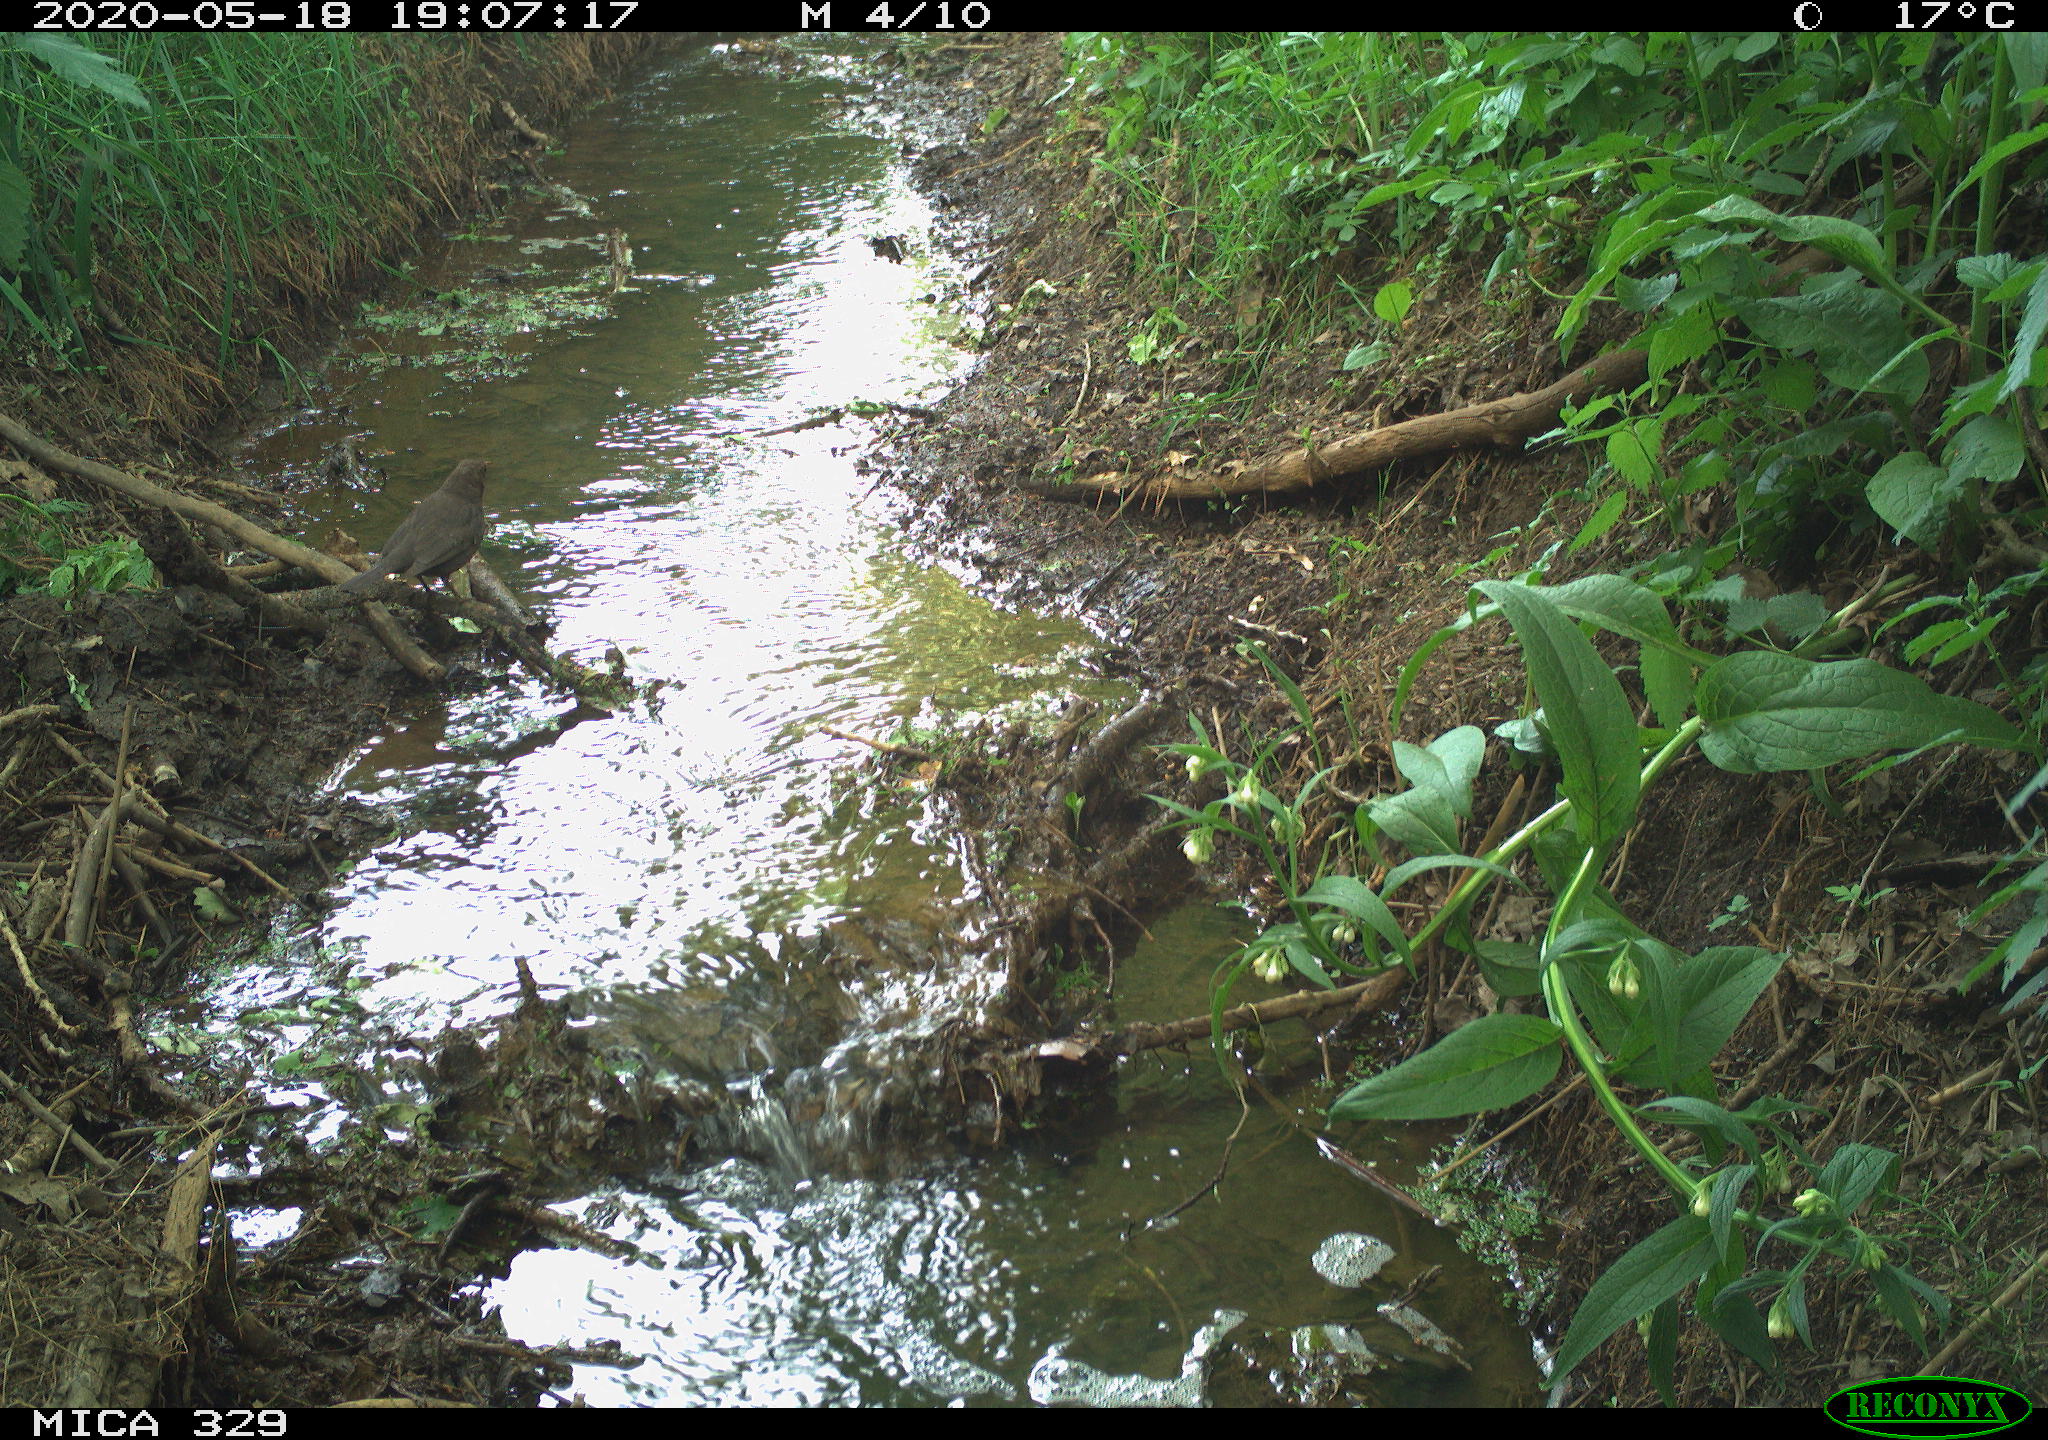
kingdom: Animalia
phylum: Chordata
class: Aves
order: Passeriformes
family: Turdidae
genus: Turdus
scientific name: Turdus merula
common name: Common blackbird
